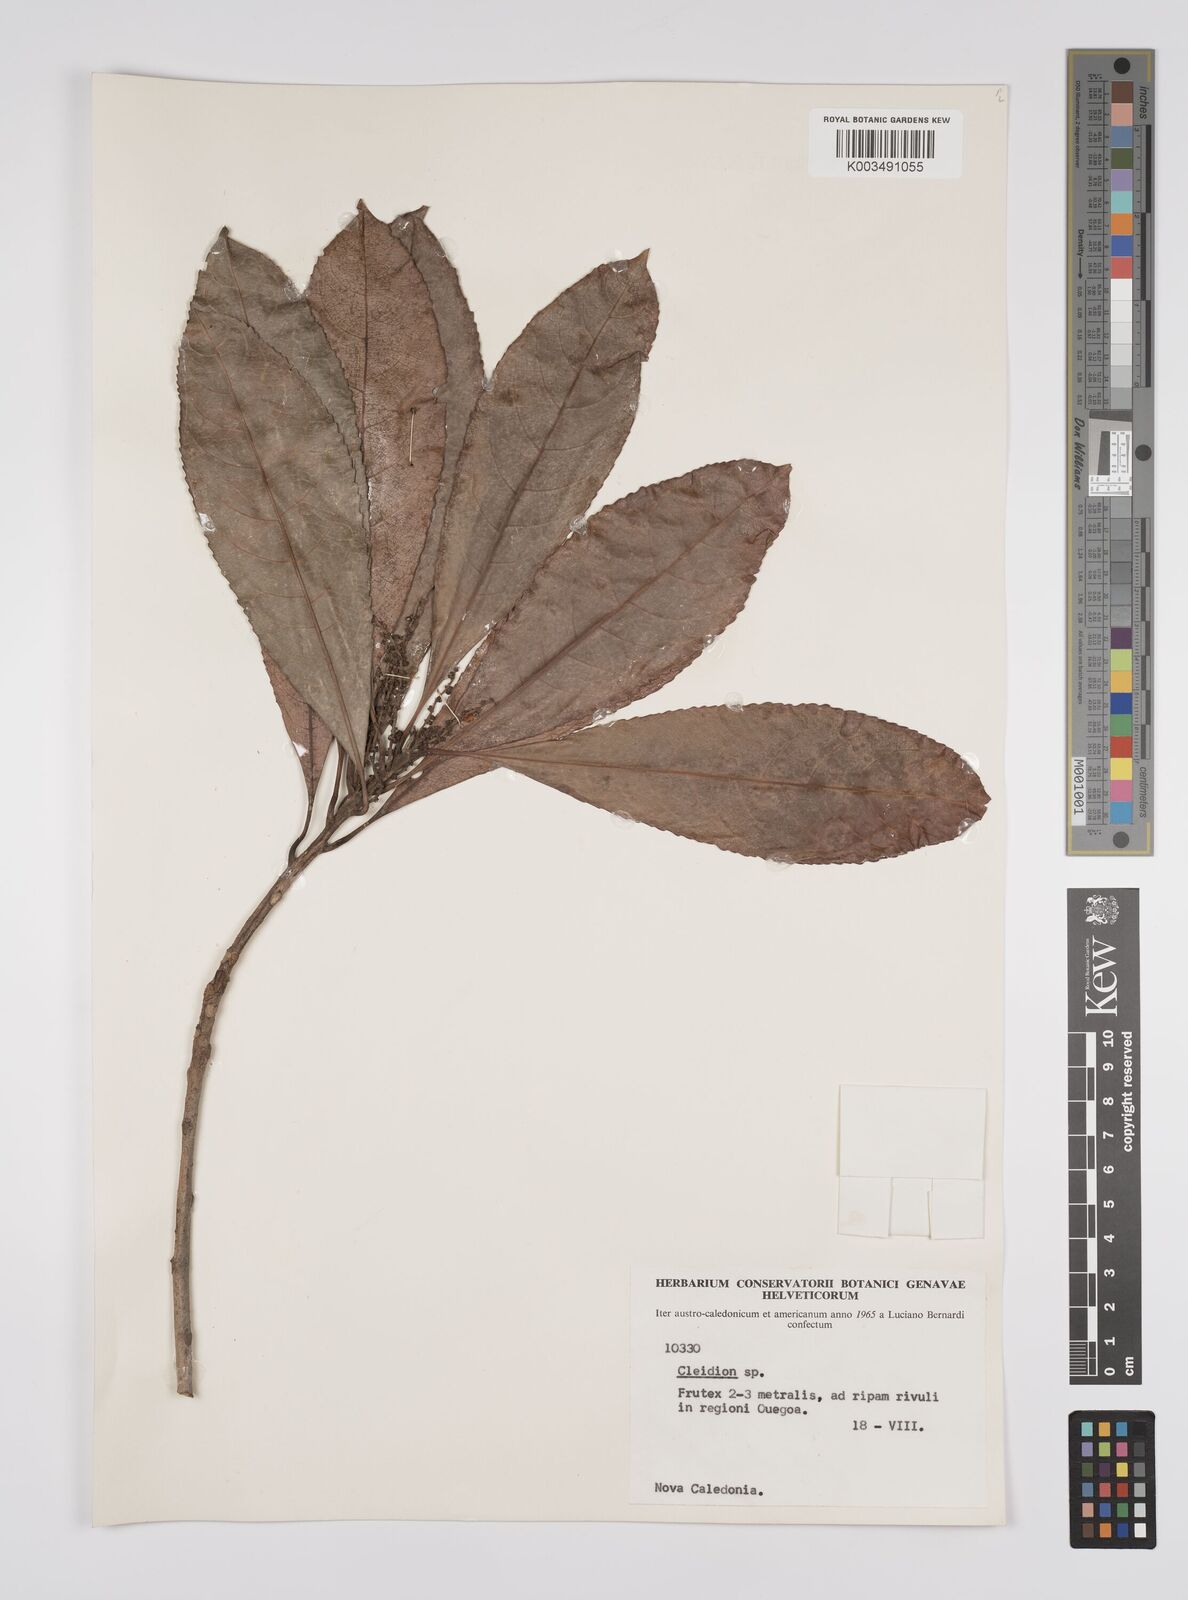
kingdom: Plantae
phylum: Tracheophyta
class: Magnoliopsida
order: Malpighiales
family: Euphorbiaceae
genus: Cleidion
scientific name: Cleidion vieillardii
